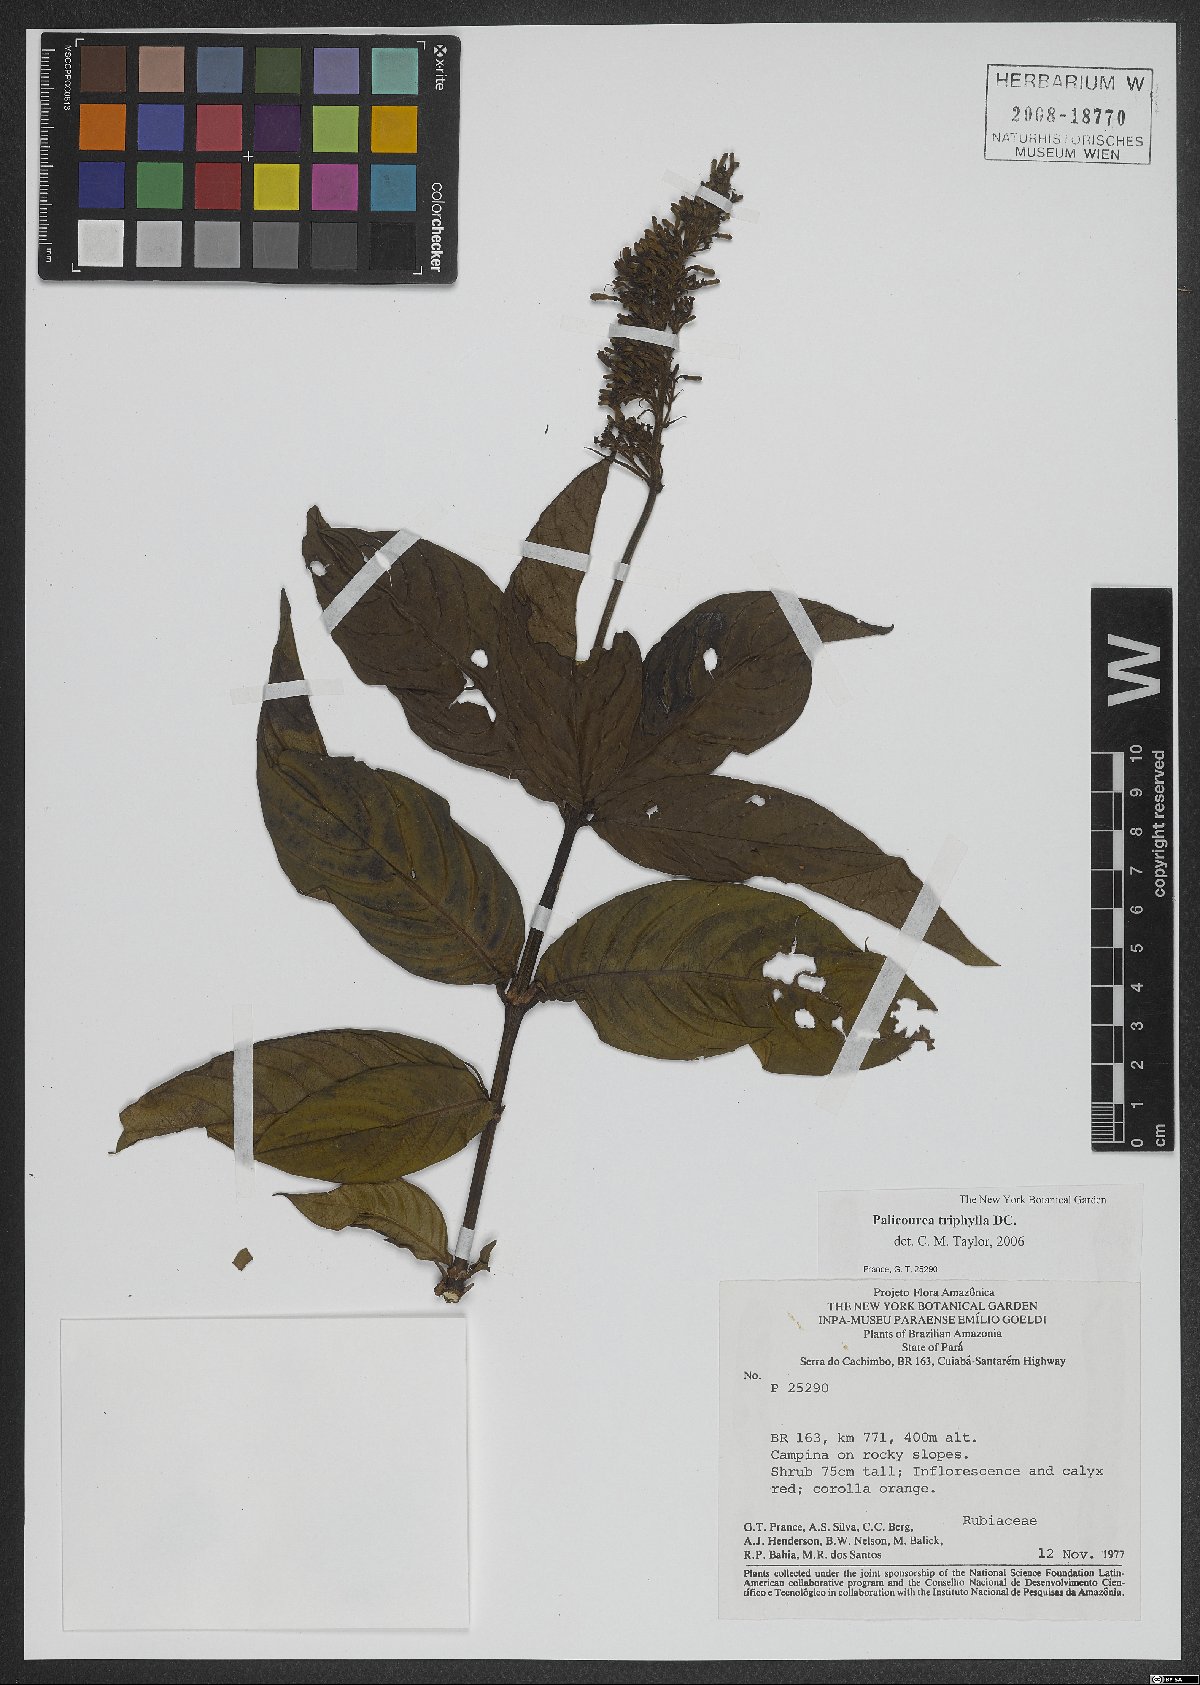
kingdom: Plantae
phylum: Tracheophyta
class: Magnoliopsida
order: Gentianales
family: Rubiaceae
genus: Palicourea
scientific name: Palicourea triphylla
